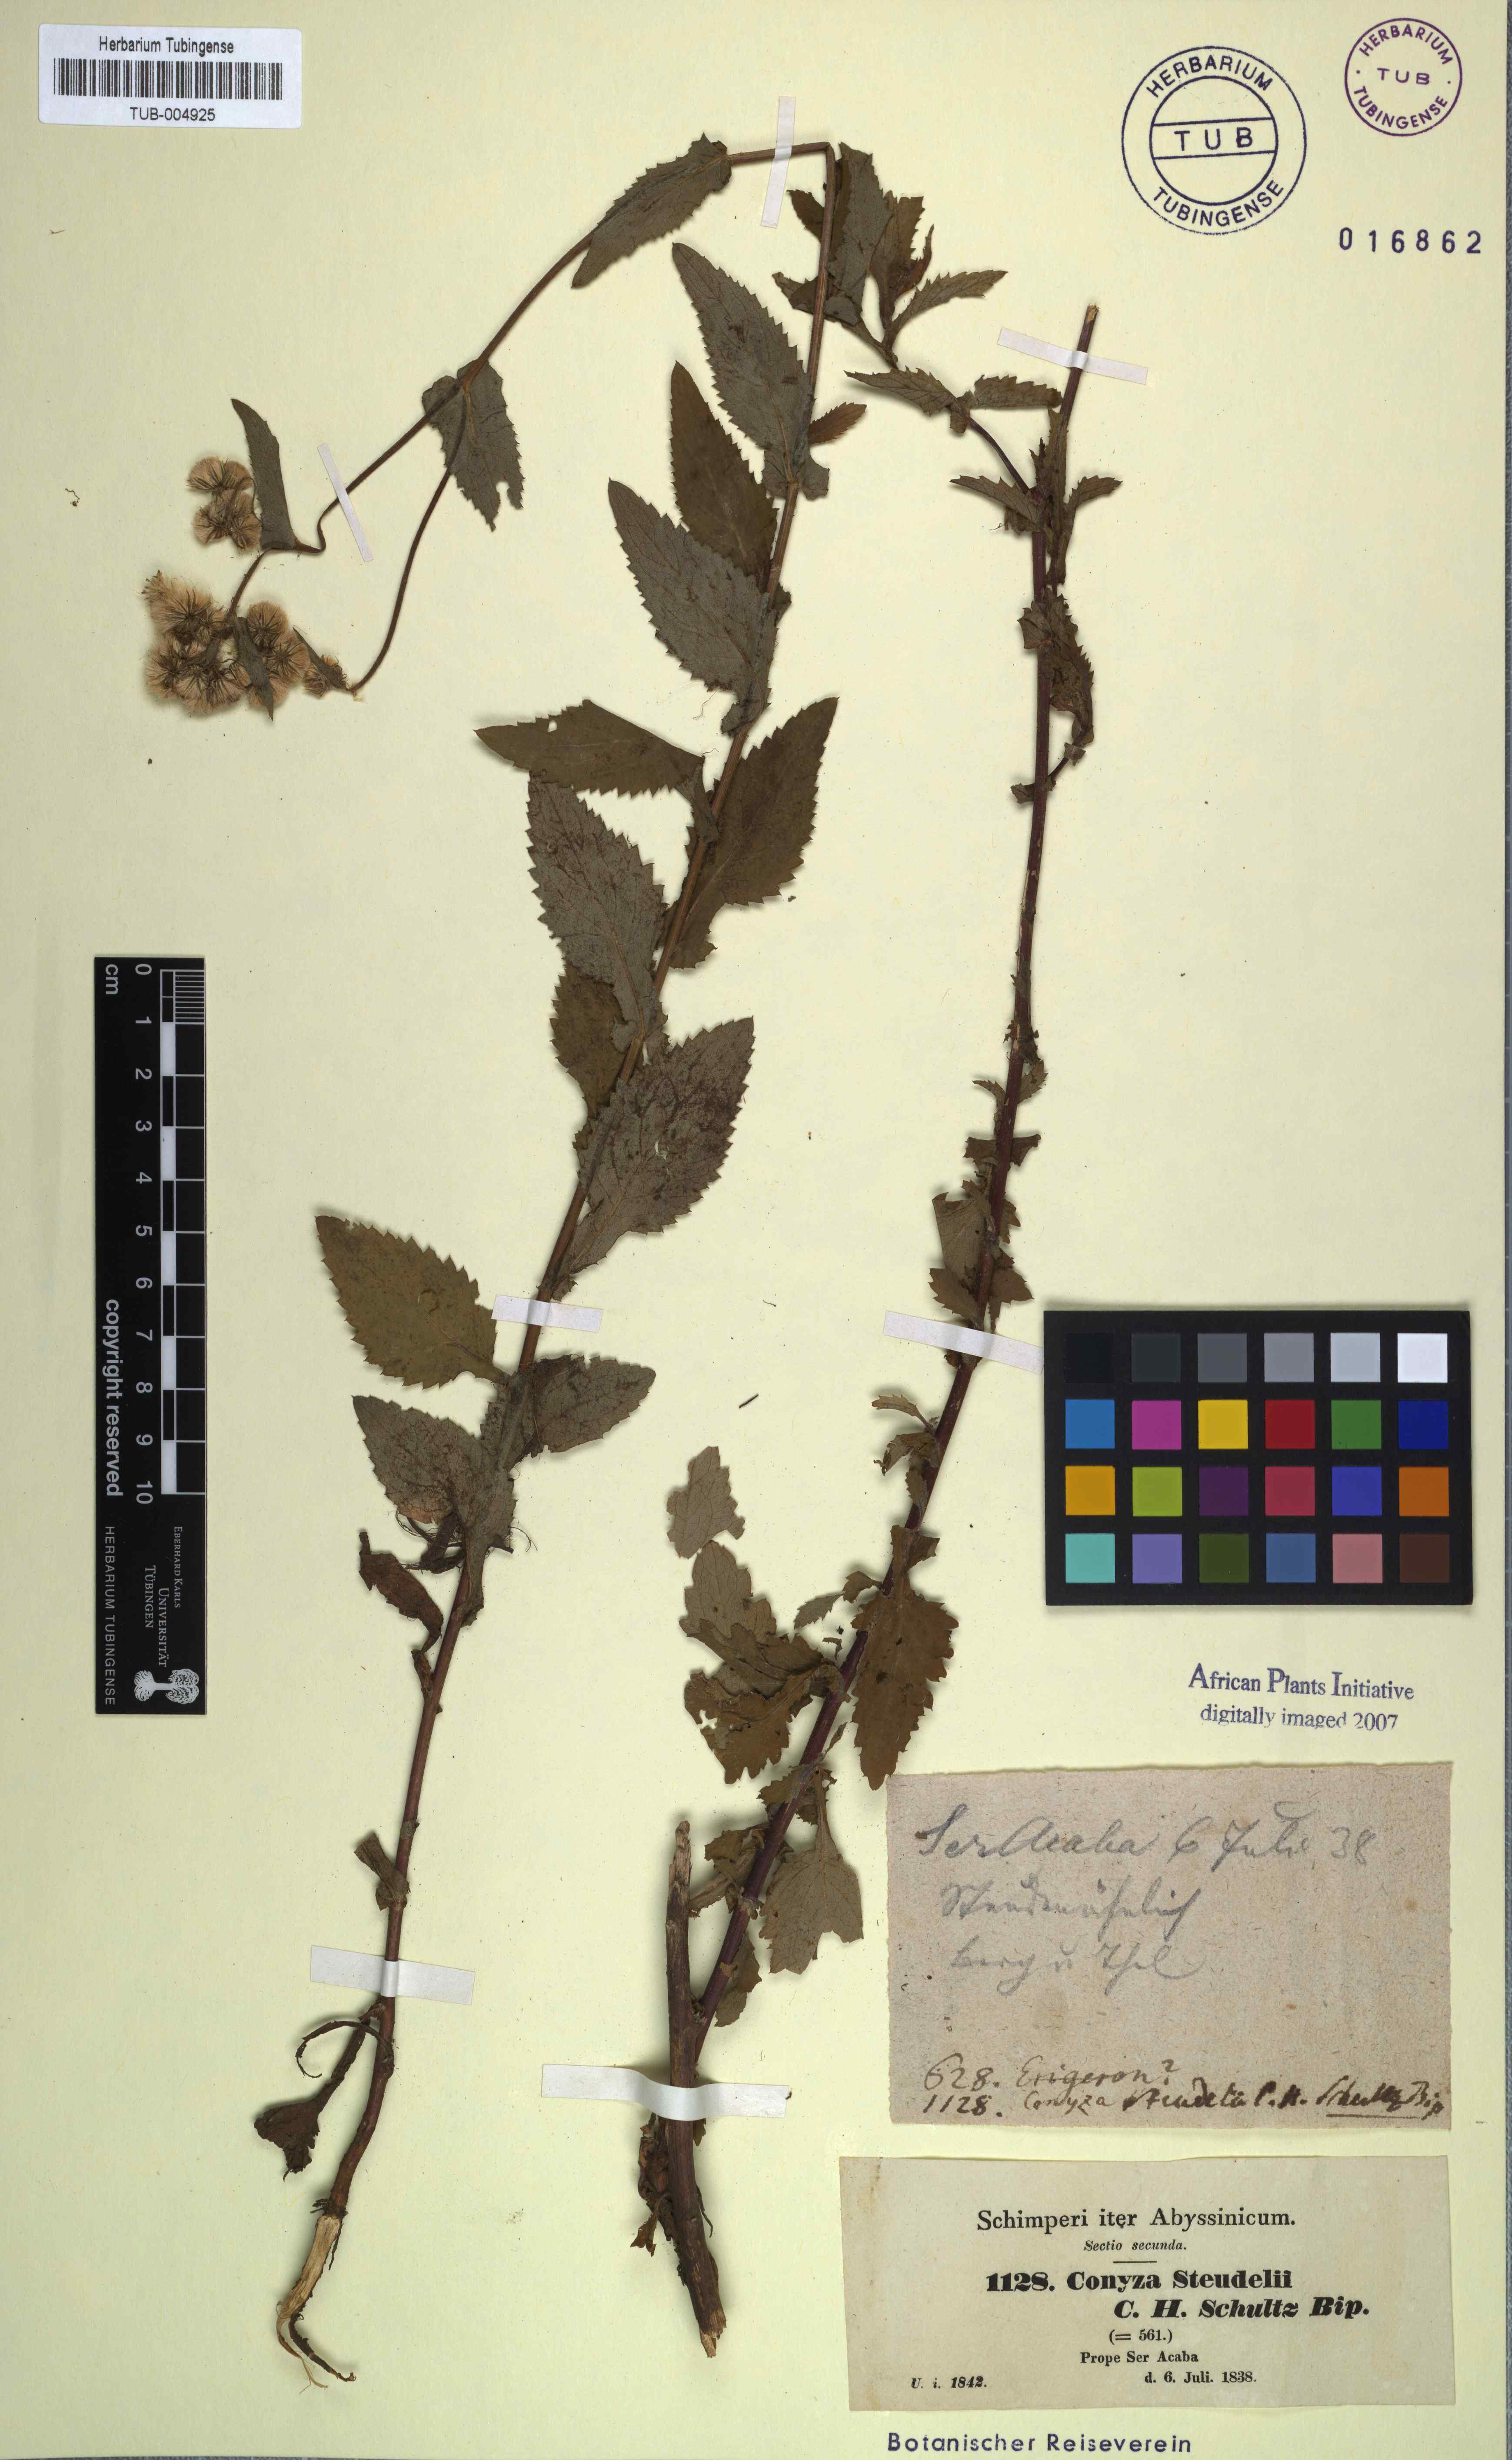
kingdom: Plantae
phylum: Tracheophyta
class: Magnoliopsida
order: Asterales
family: Asteraceae
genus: Conyza
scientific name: Conyza steudelii
